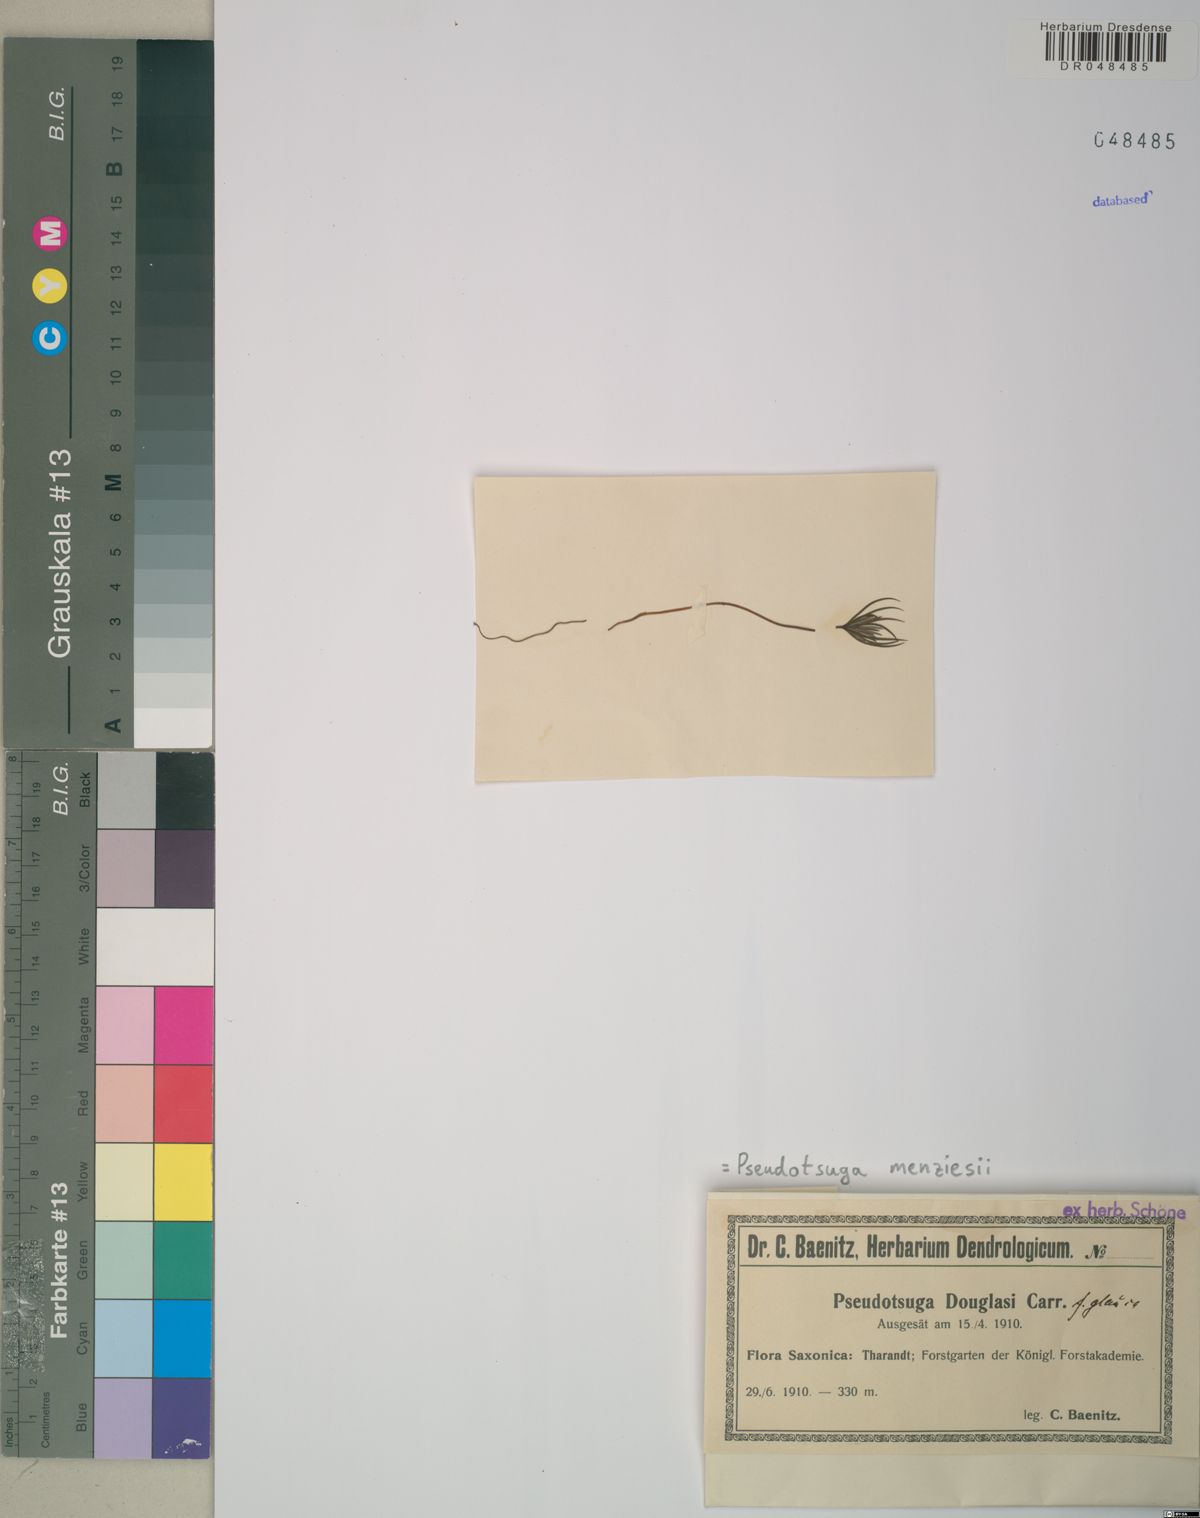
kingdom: Plantae
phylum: Tracheophyta
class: Pinopsida
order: Pinales
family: Pinaceae
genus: Pseudotsuga
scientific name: Pseudotsuga menziesii
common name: Douglas fir
